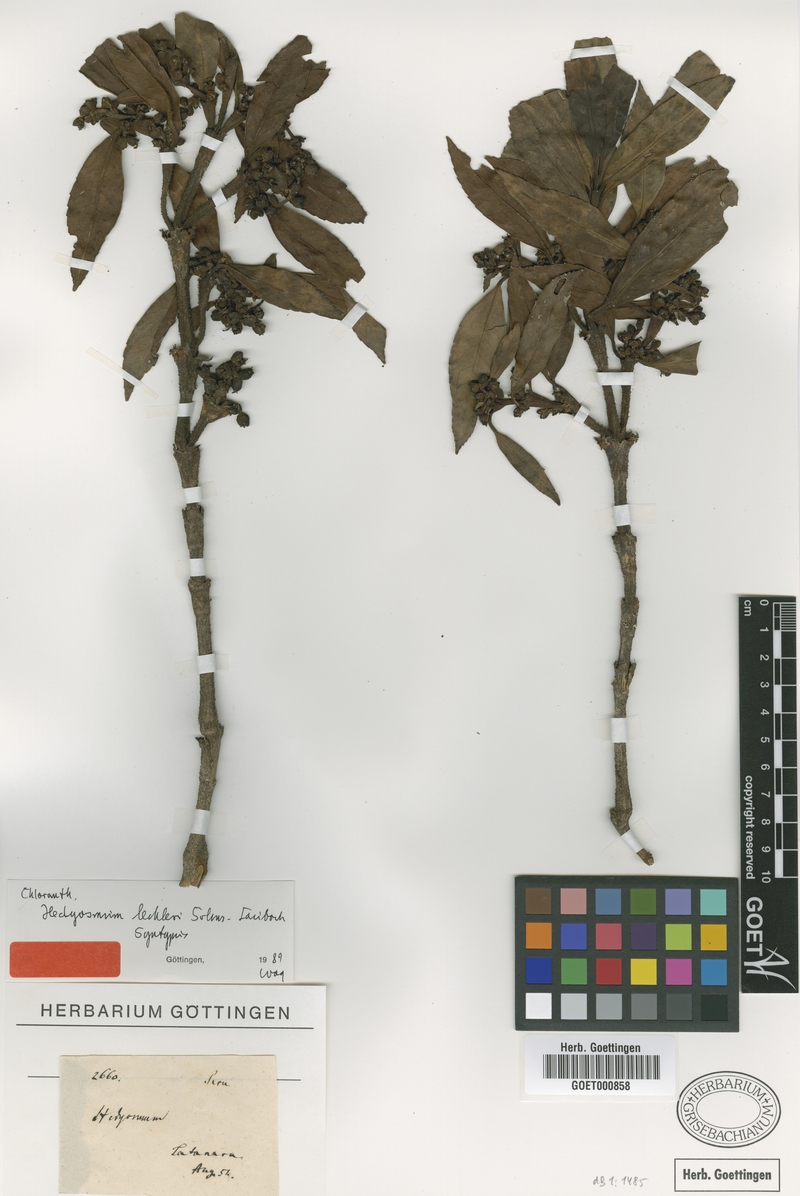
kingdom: Plantae
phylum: Tracheophyta
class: Magnoliopsida
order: Chloranthales
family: Chloranthaceae
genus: Hedyosmum
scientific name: Hedyosmum lechleri
